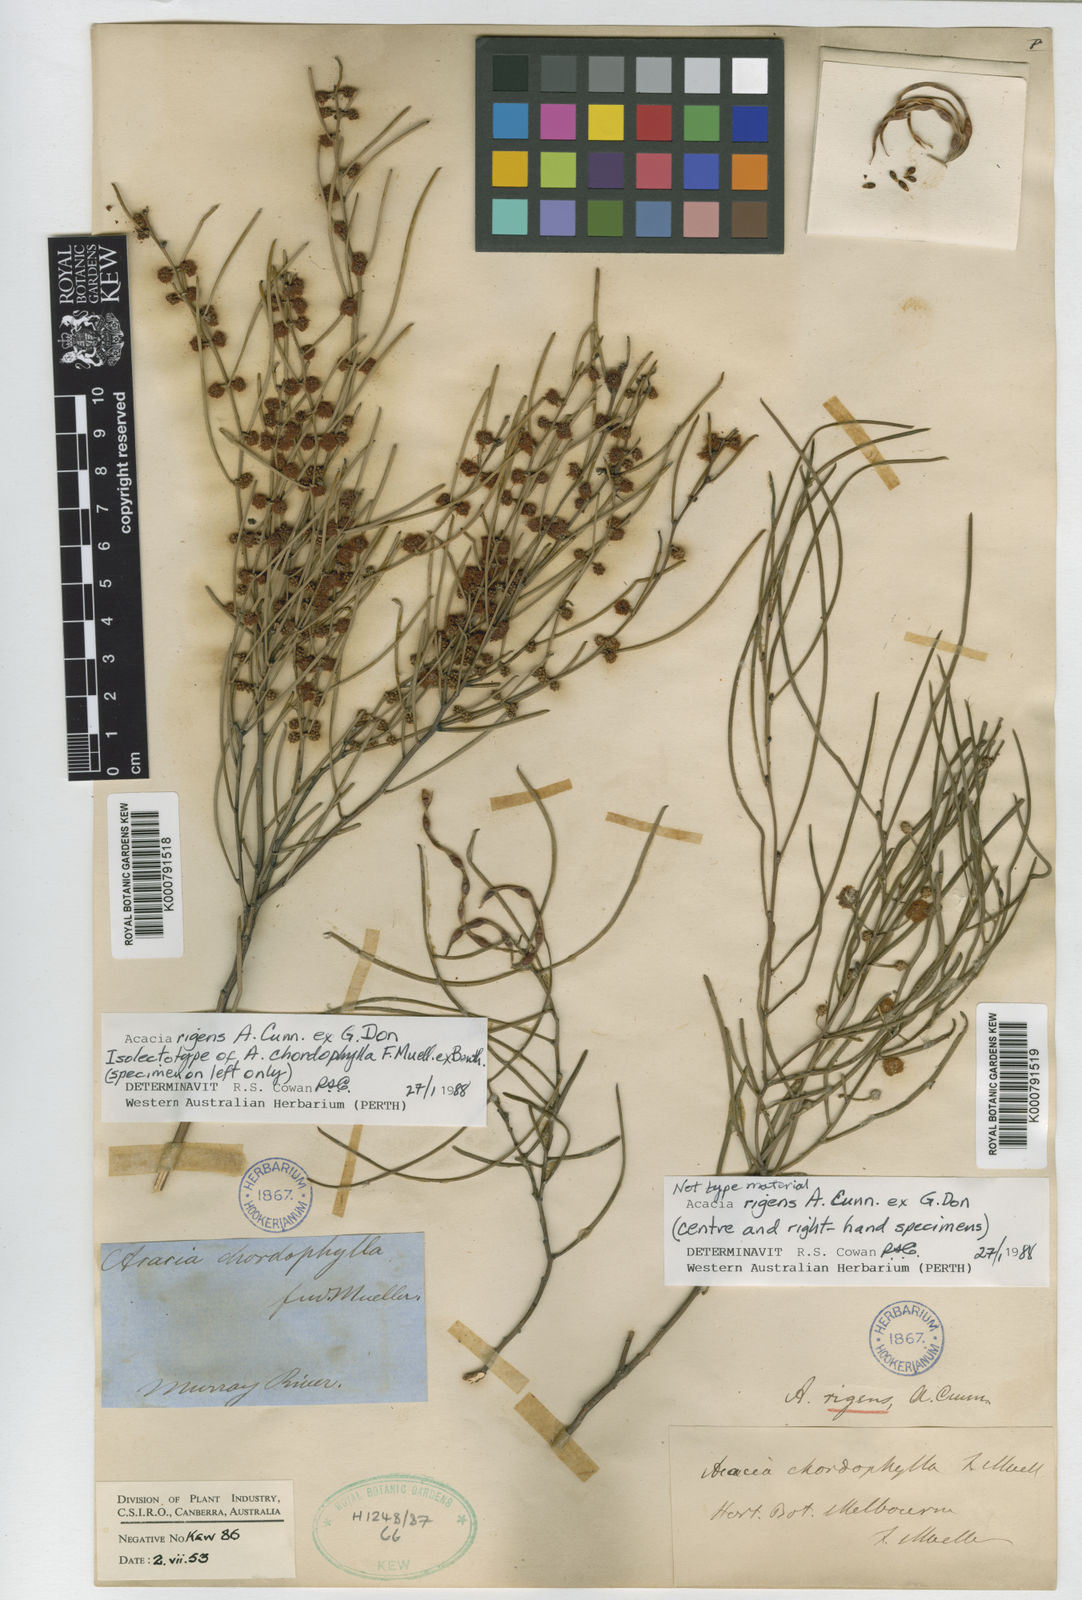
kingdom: Plantae
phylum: Tracheophyta
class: Magnoliopsida
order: Fabales
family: Fabaceae
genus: Acacia
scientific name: Acacia rigens
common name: Nealie
